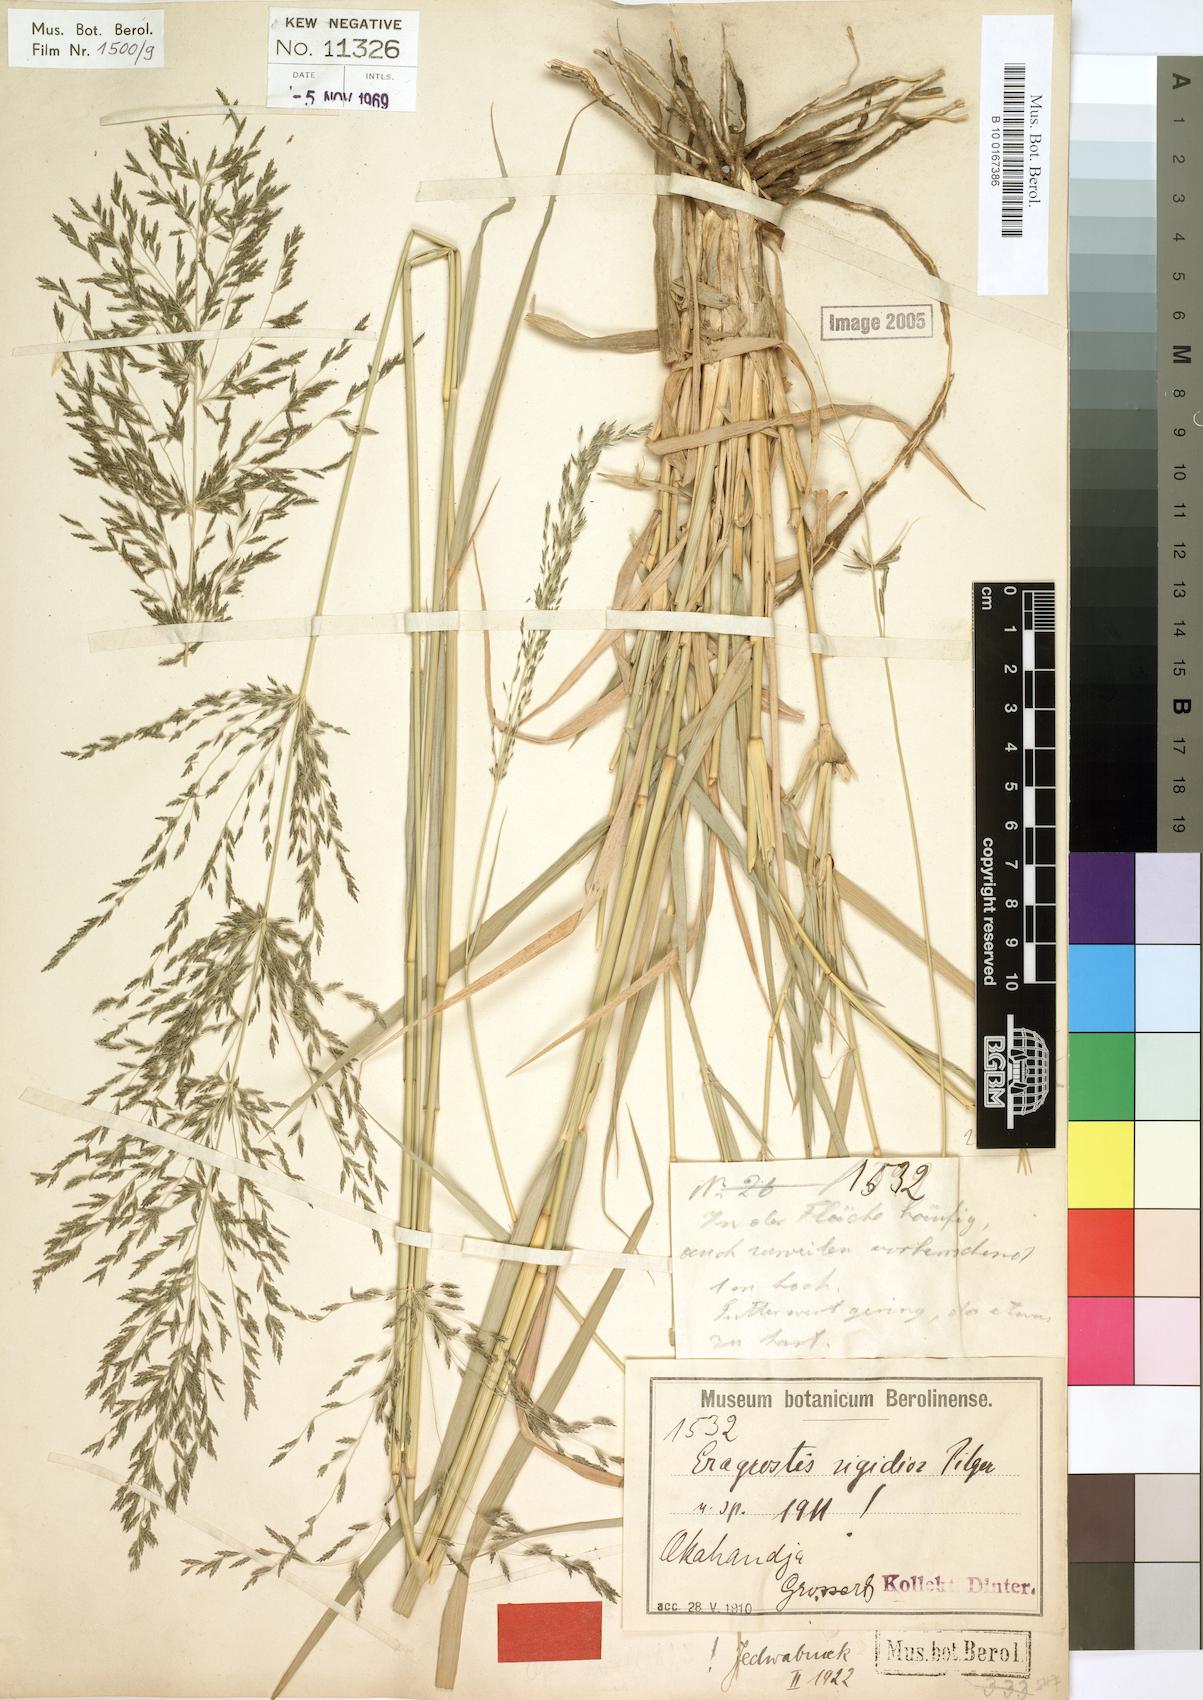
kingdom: Plantae
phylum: Tracheophyta
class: Liliopsida
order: Poales
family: Poaceae
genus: Eragrostis
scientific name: Eragrostis cylindriflora
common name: Cylinderflower lovegrass
